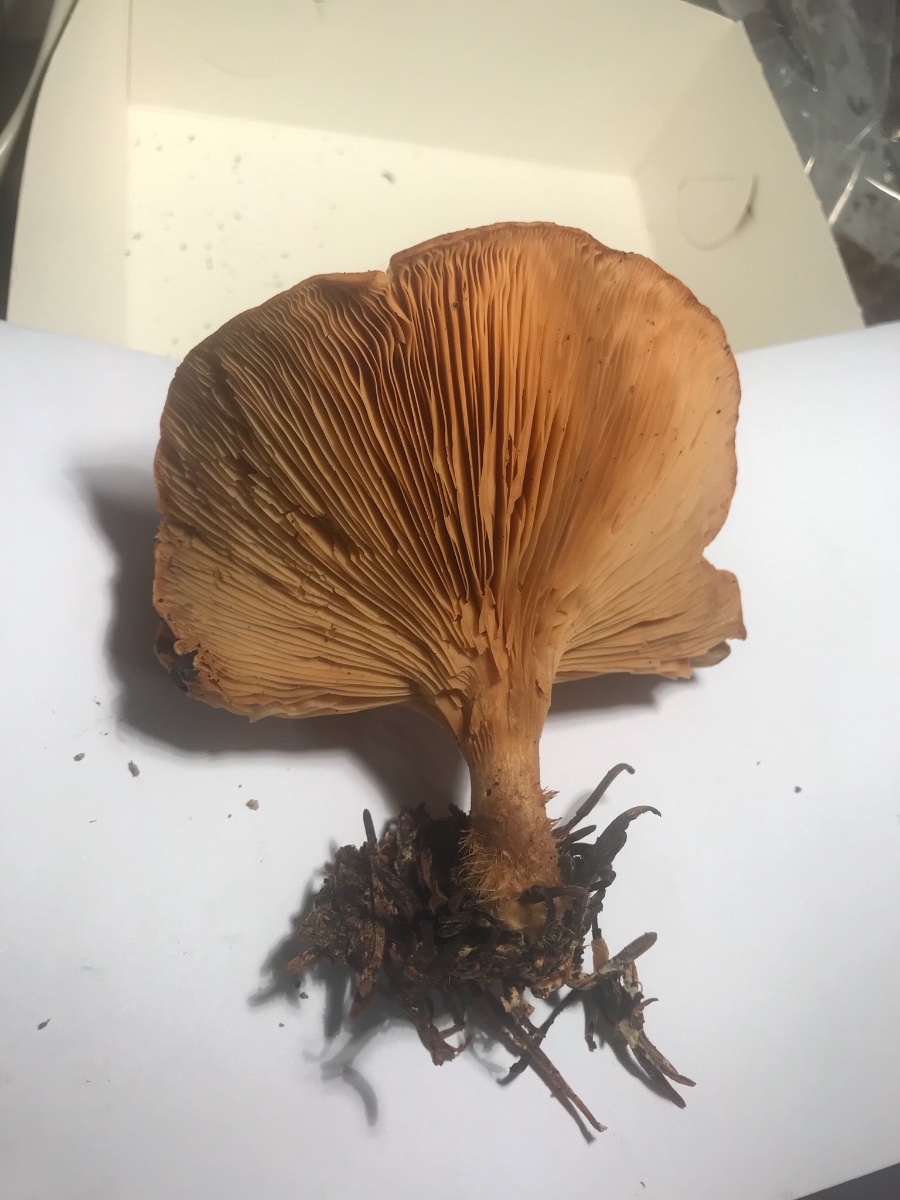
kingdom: Fungi
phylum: Basidiomycota
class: Agaricomycetes
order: Agaricales
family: Tricholomataceae
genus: Paralepista
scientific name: Paralepista flaccida
